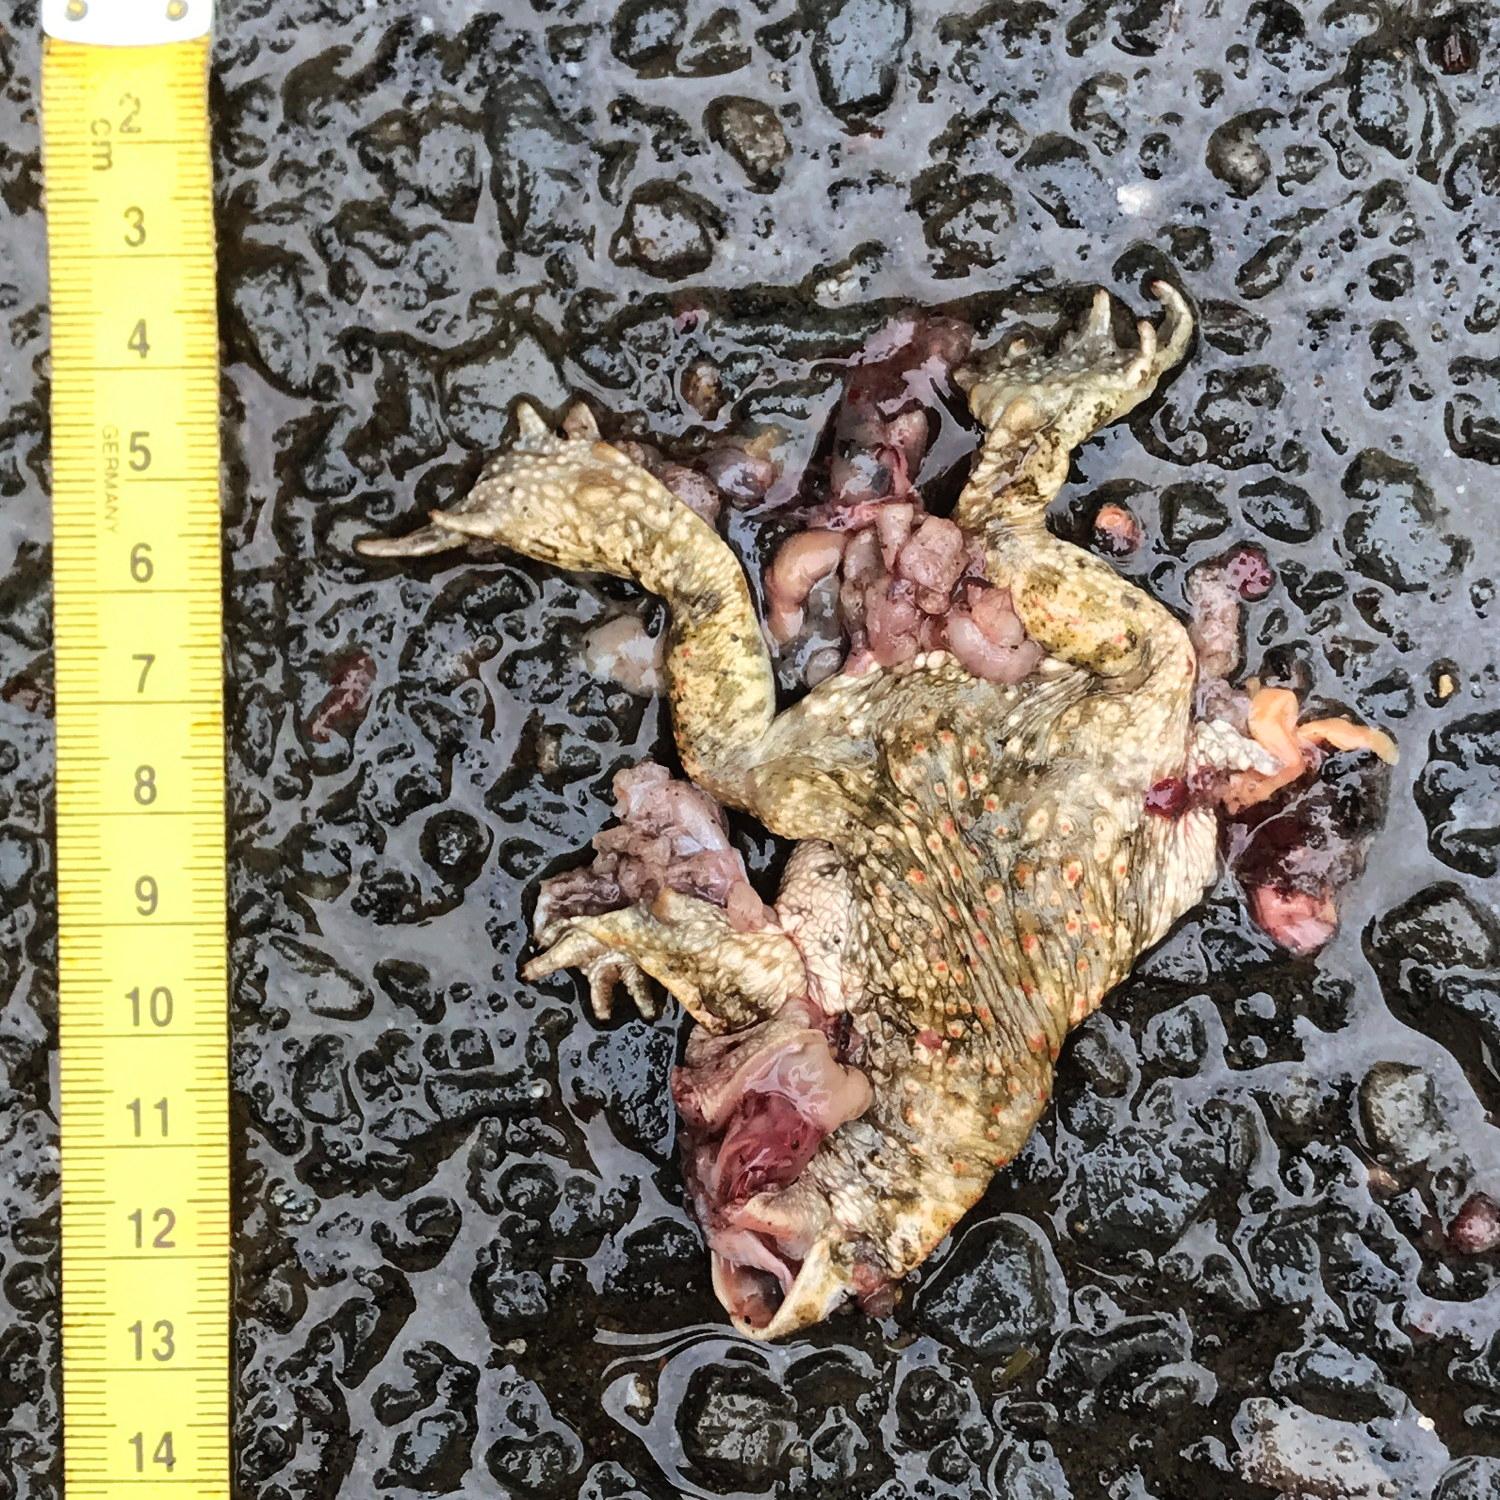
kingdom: Animalia
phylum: Chordata
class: Amphibia
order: Anura
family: Bufonidae
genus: Bufo
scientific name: Bufo bufo
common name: Common toad
